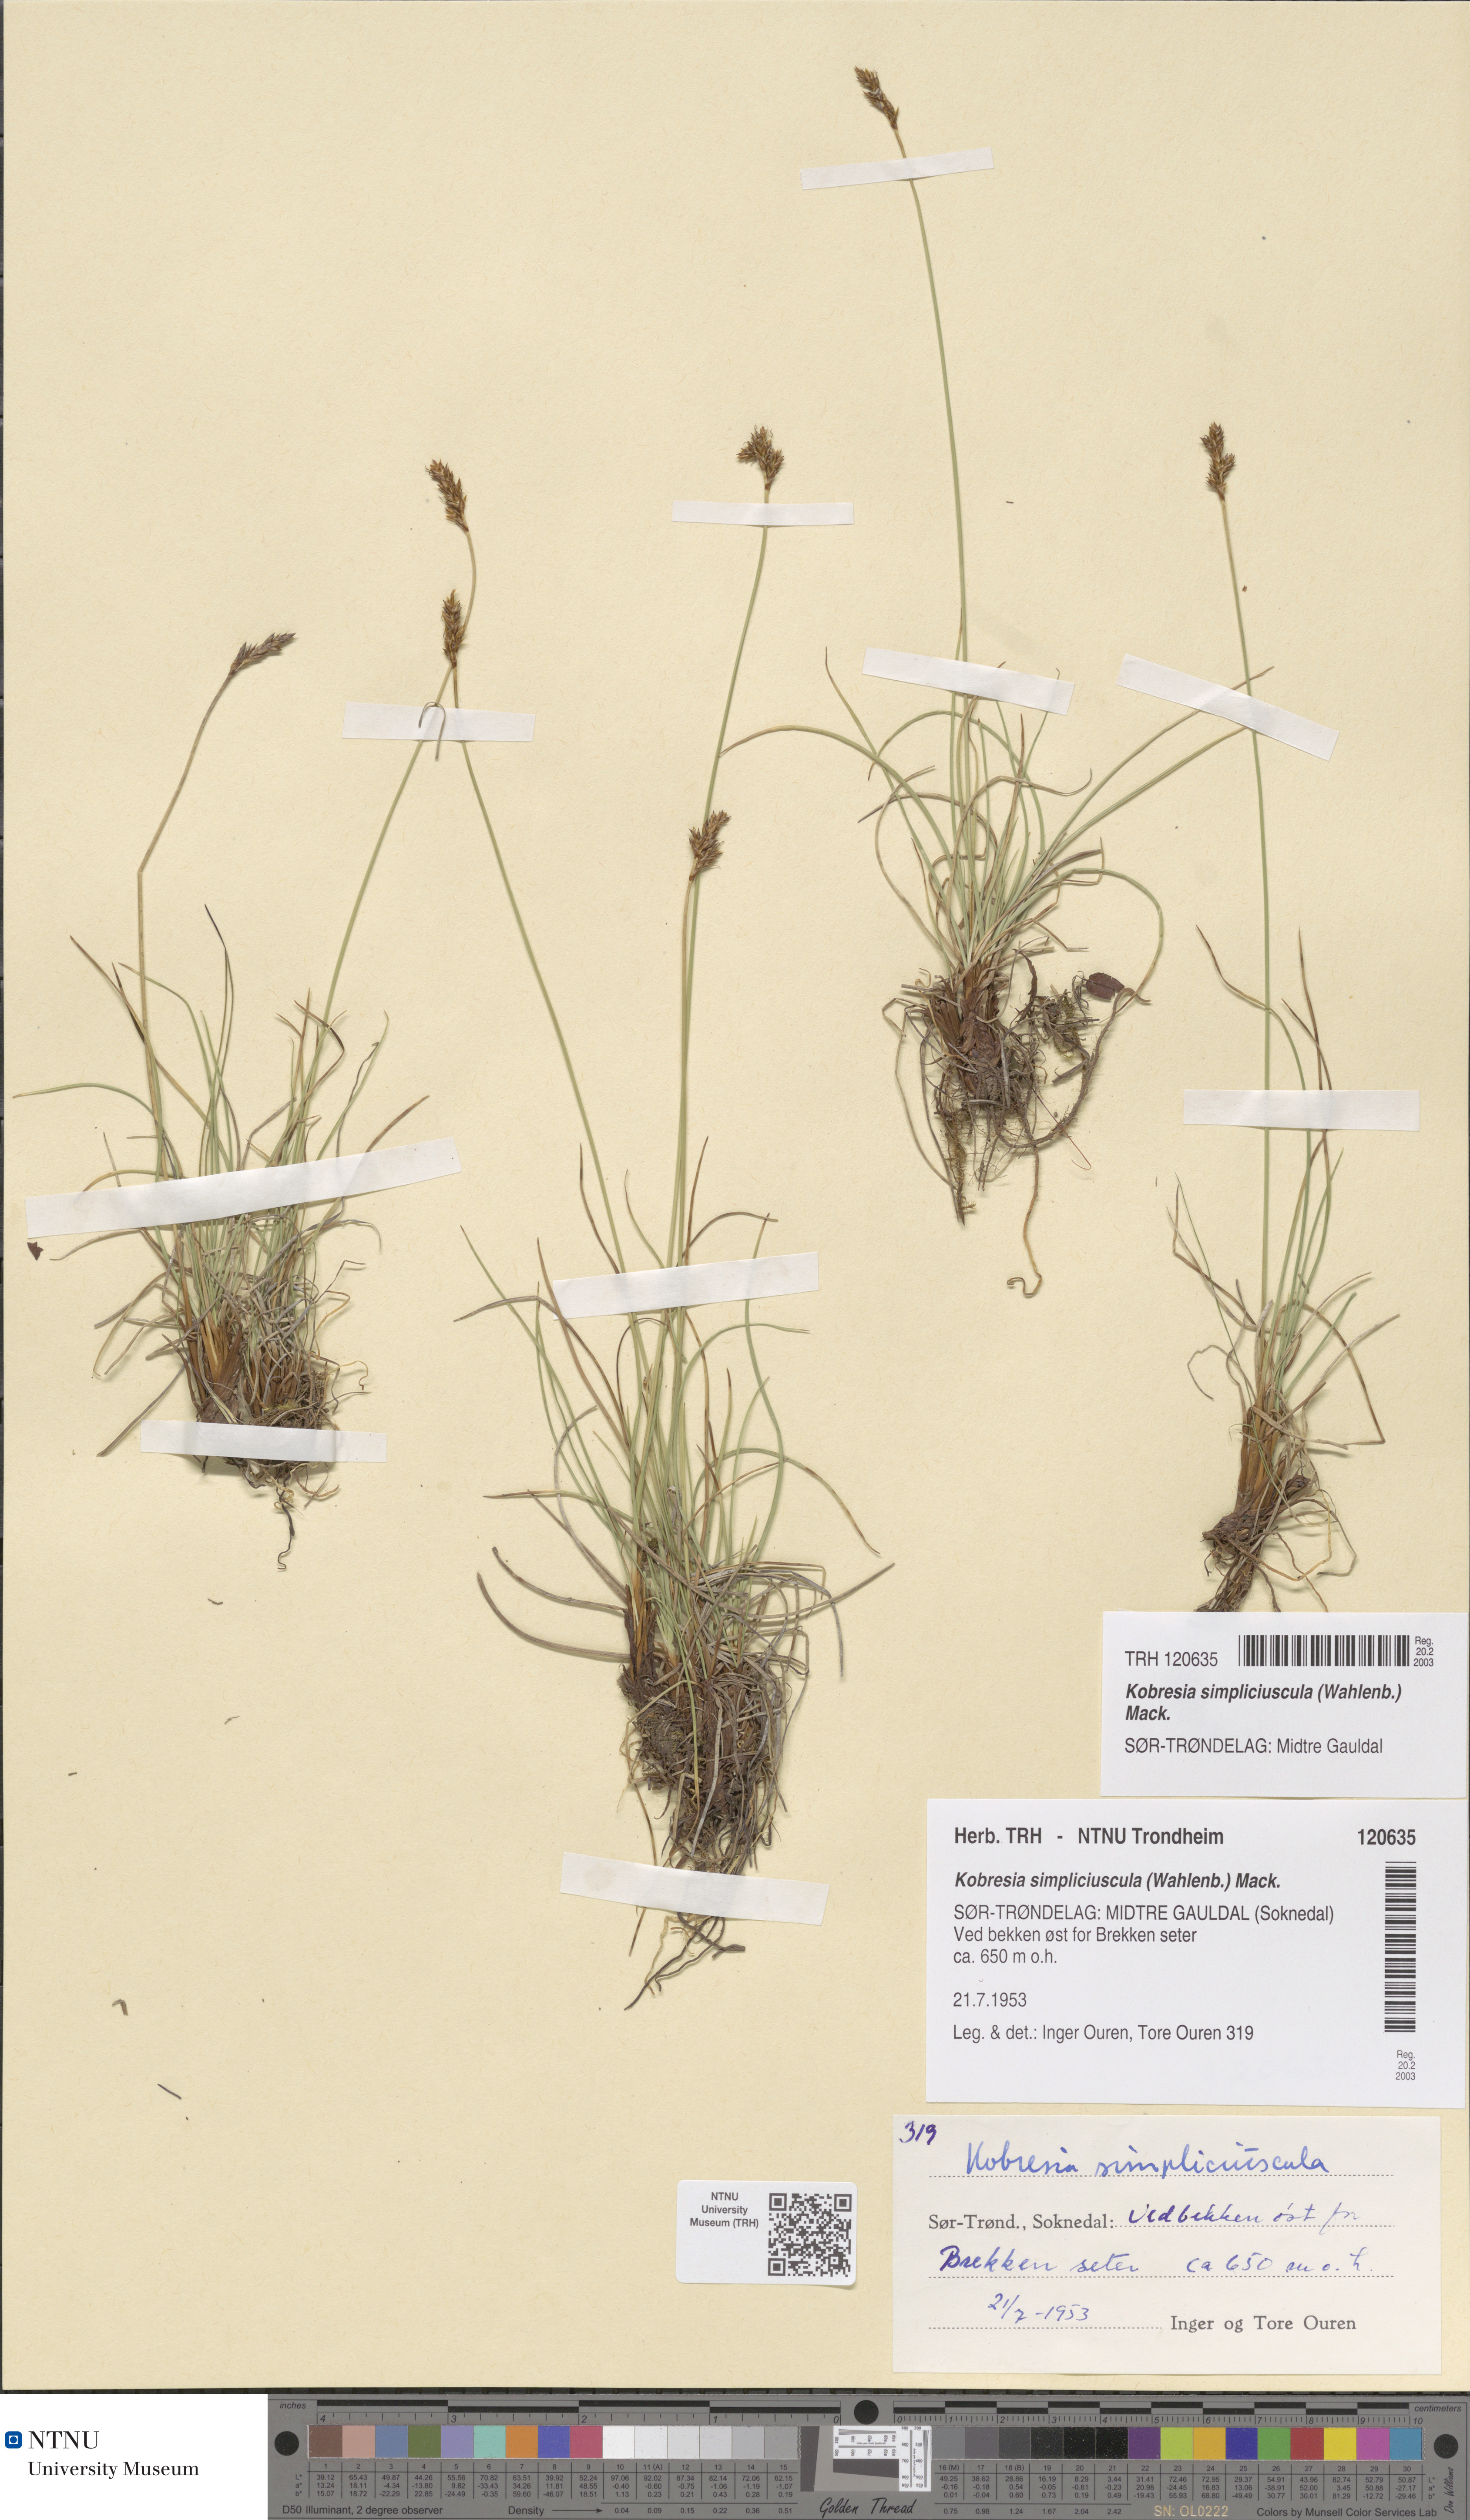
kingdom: Plantae
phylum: Tracheophyta
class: Liliopsida
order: Poales
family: Cyperaceae
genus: Carex
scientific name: Carex simpliciuscula
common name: Simple bog sedge
